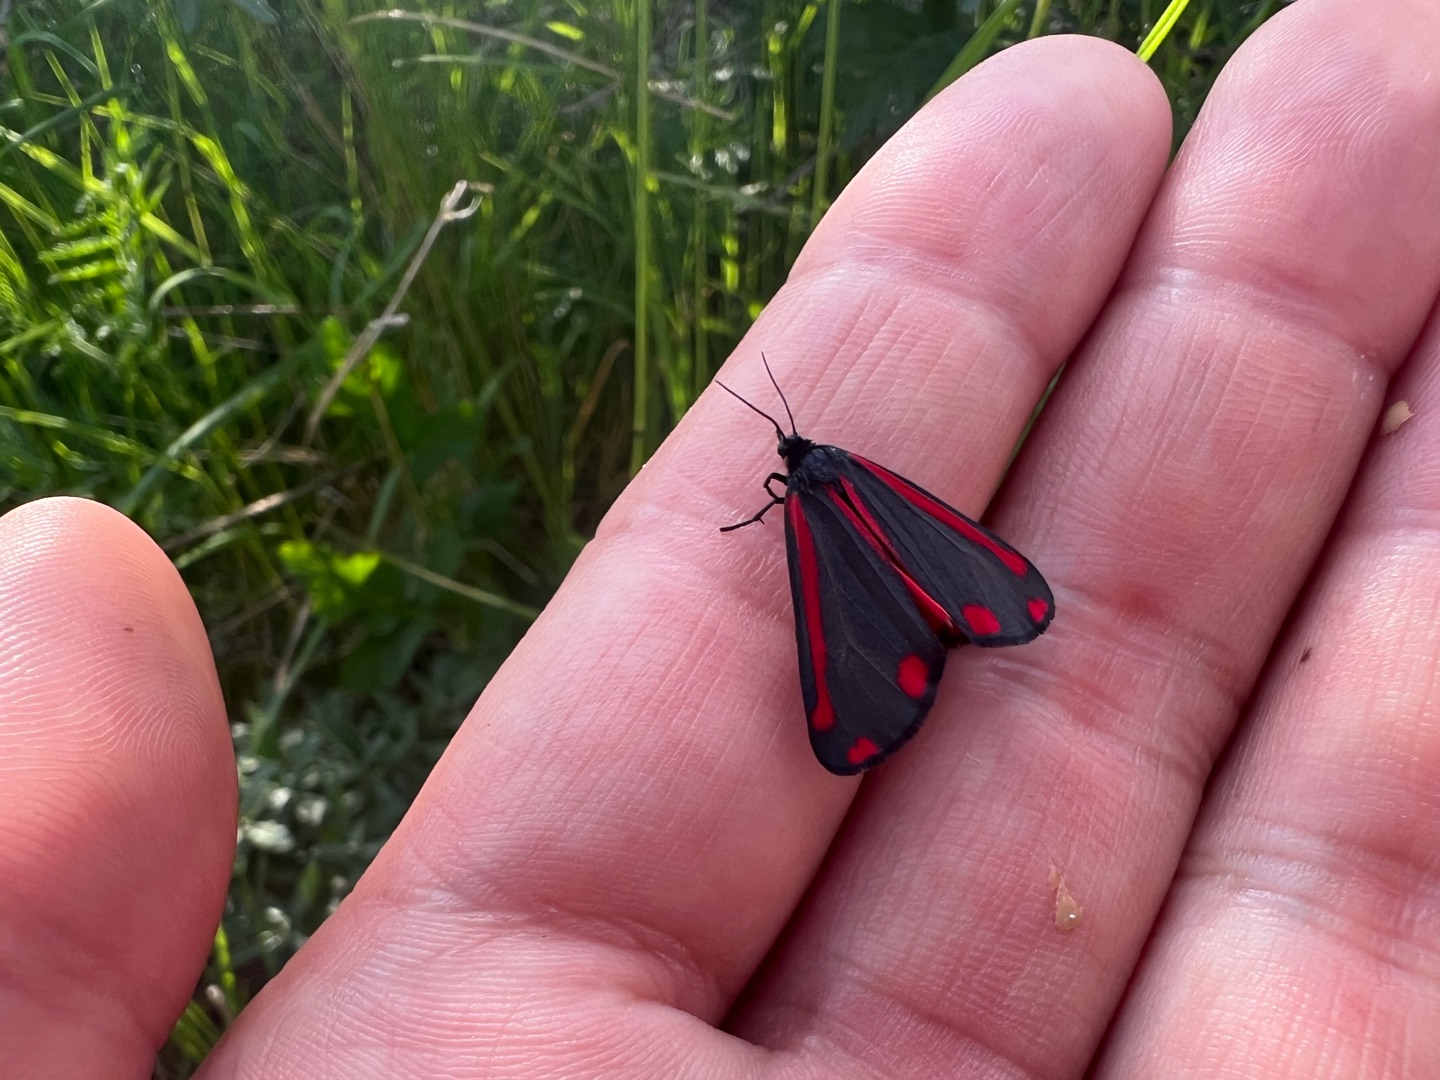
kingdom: Animalia
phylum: Arthropoda
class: Insecta
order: Lepidoptera
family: Erebidae
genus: Tyria
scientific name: Tyria jacobaeae
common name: Blodplet
